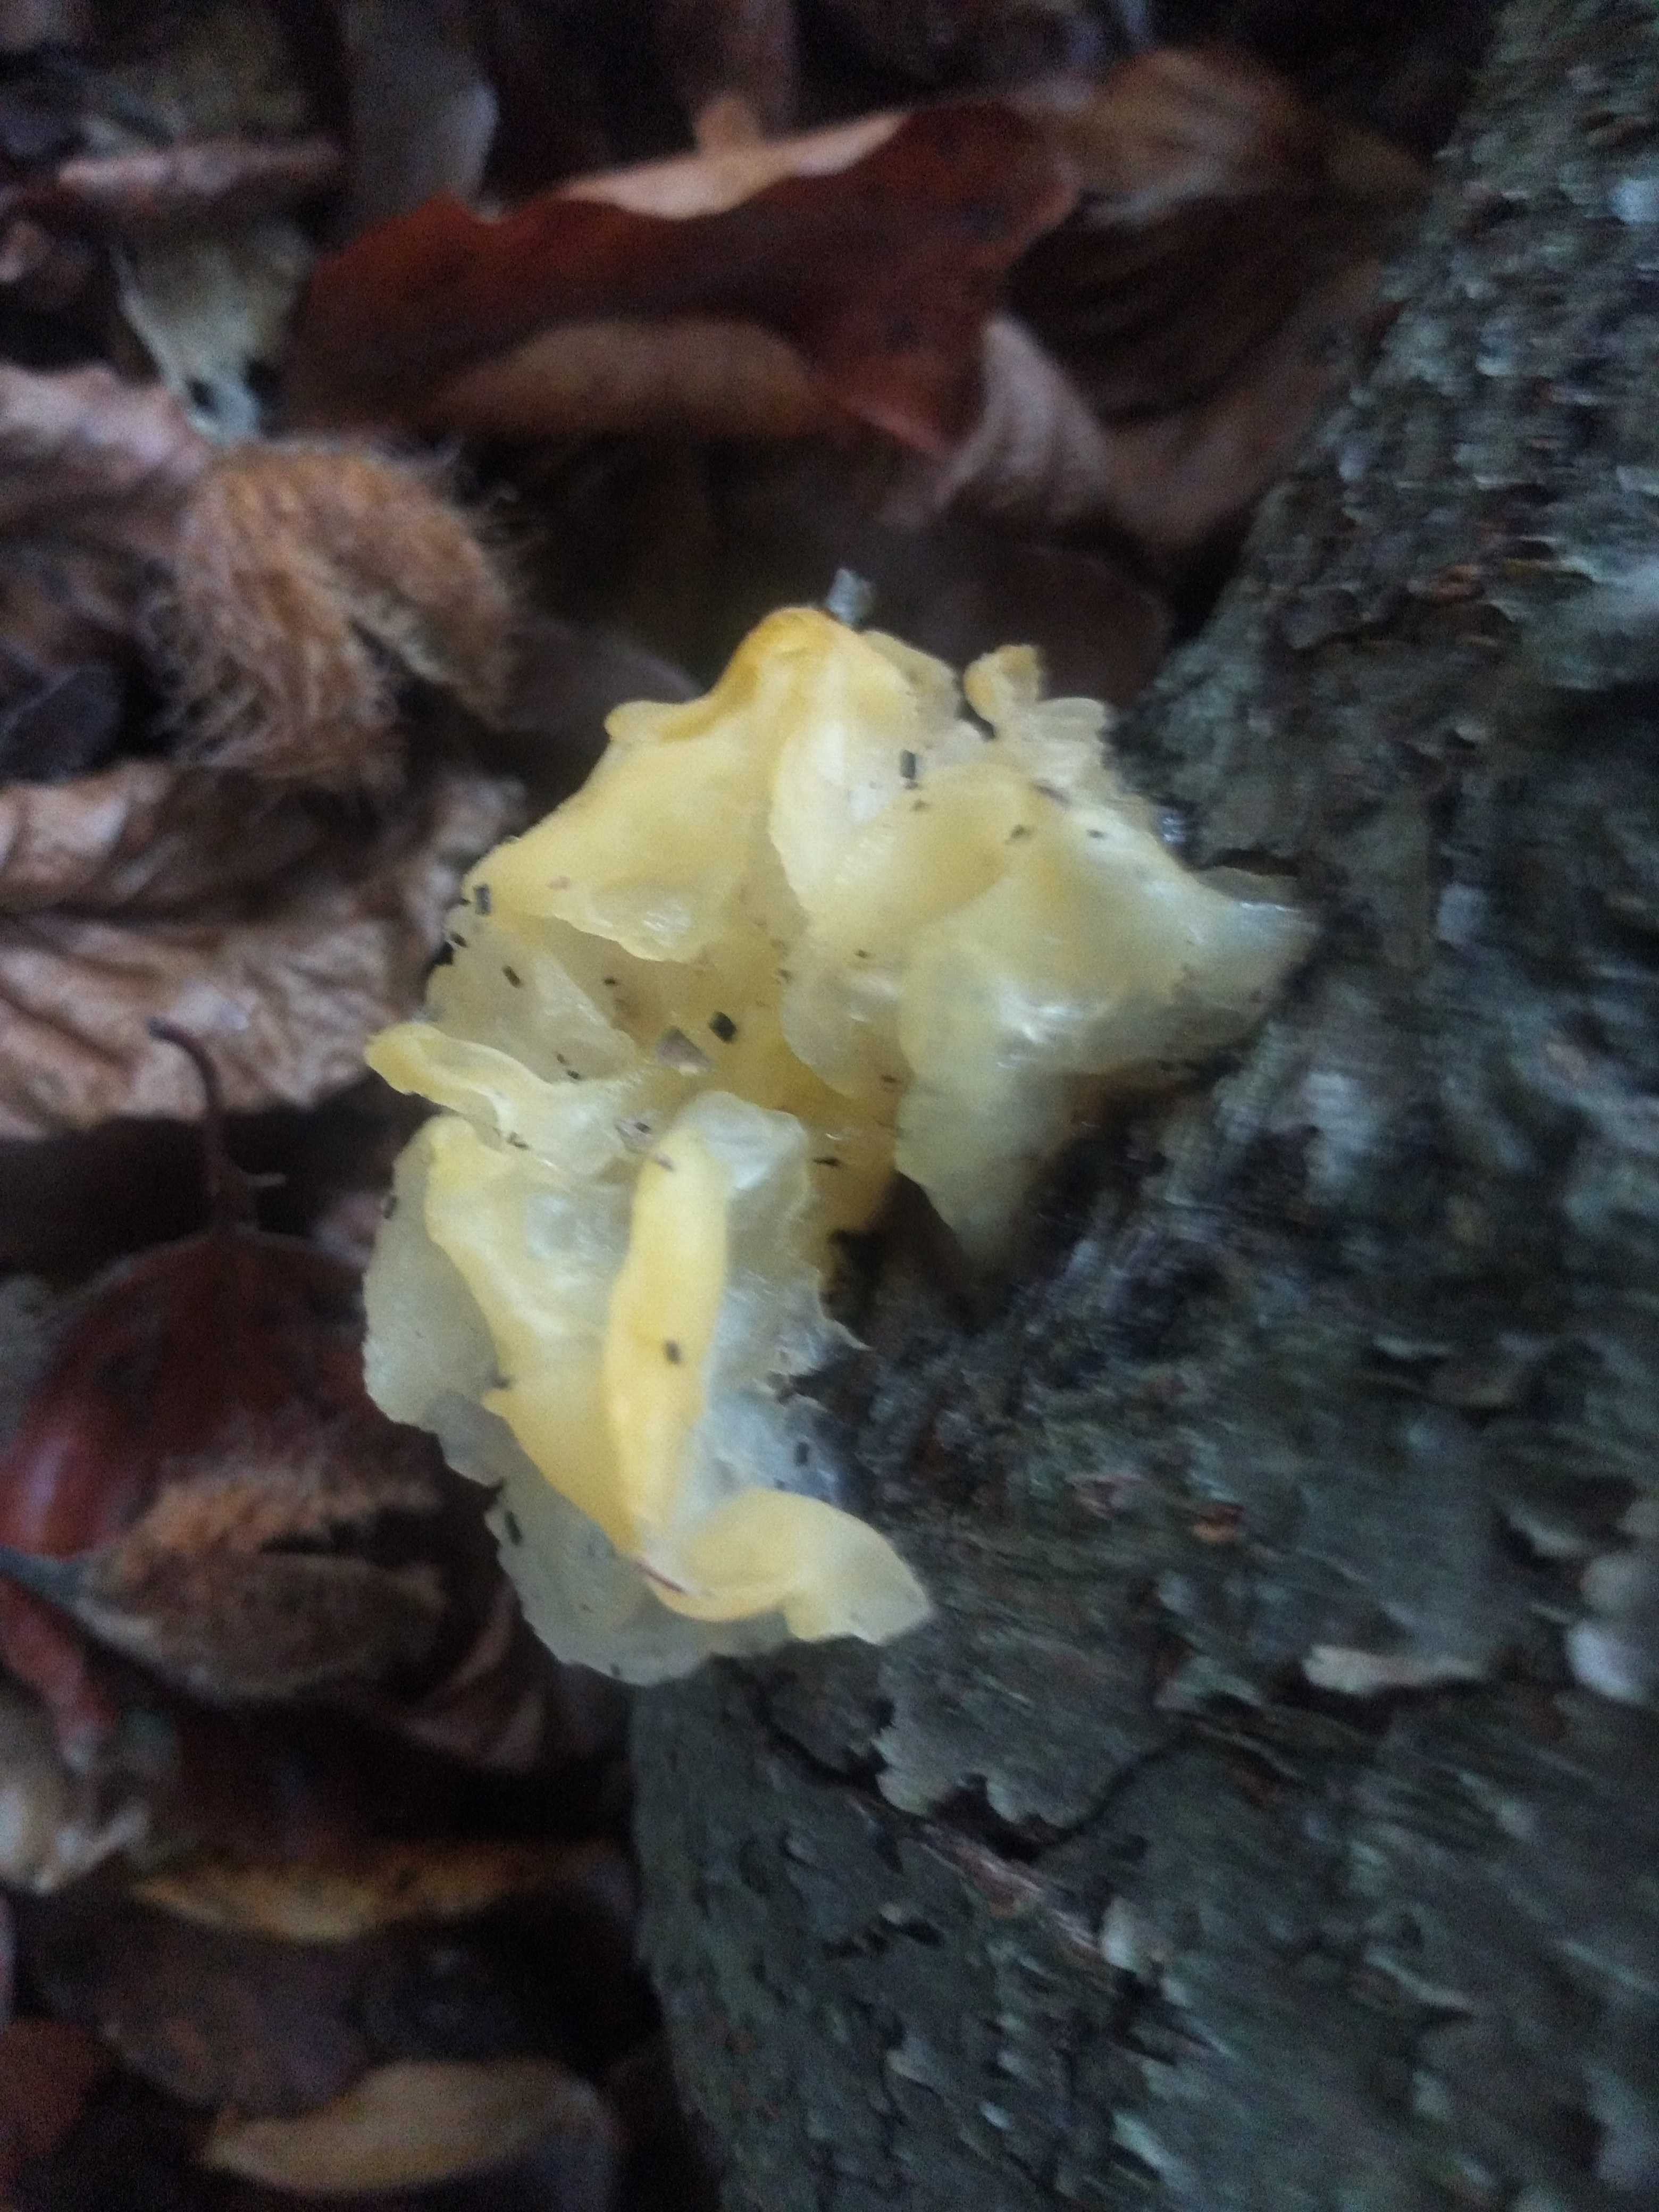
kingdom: Fungi
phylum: Basidiomycota
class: Tremellomycetes
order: Tremellales
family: Tremellaceae
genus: Tremella
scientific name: Tremella mesenterica
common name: gul bævresvamp
